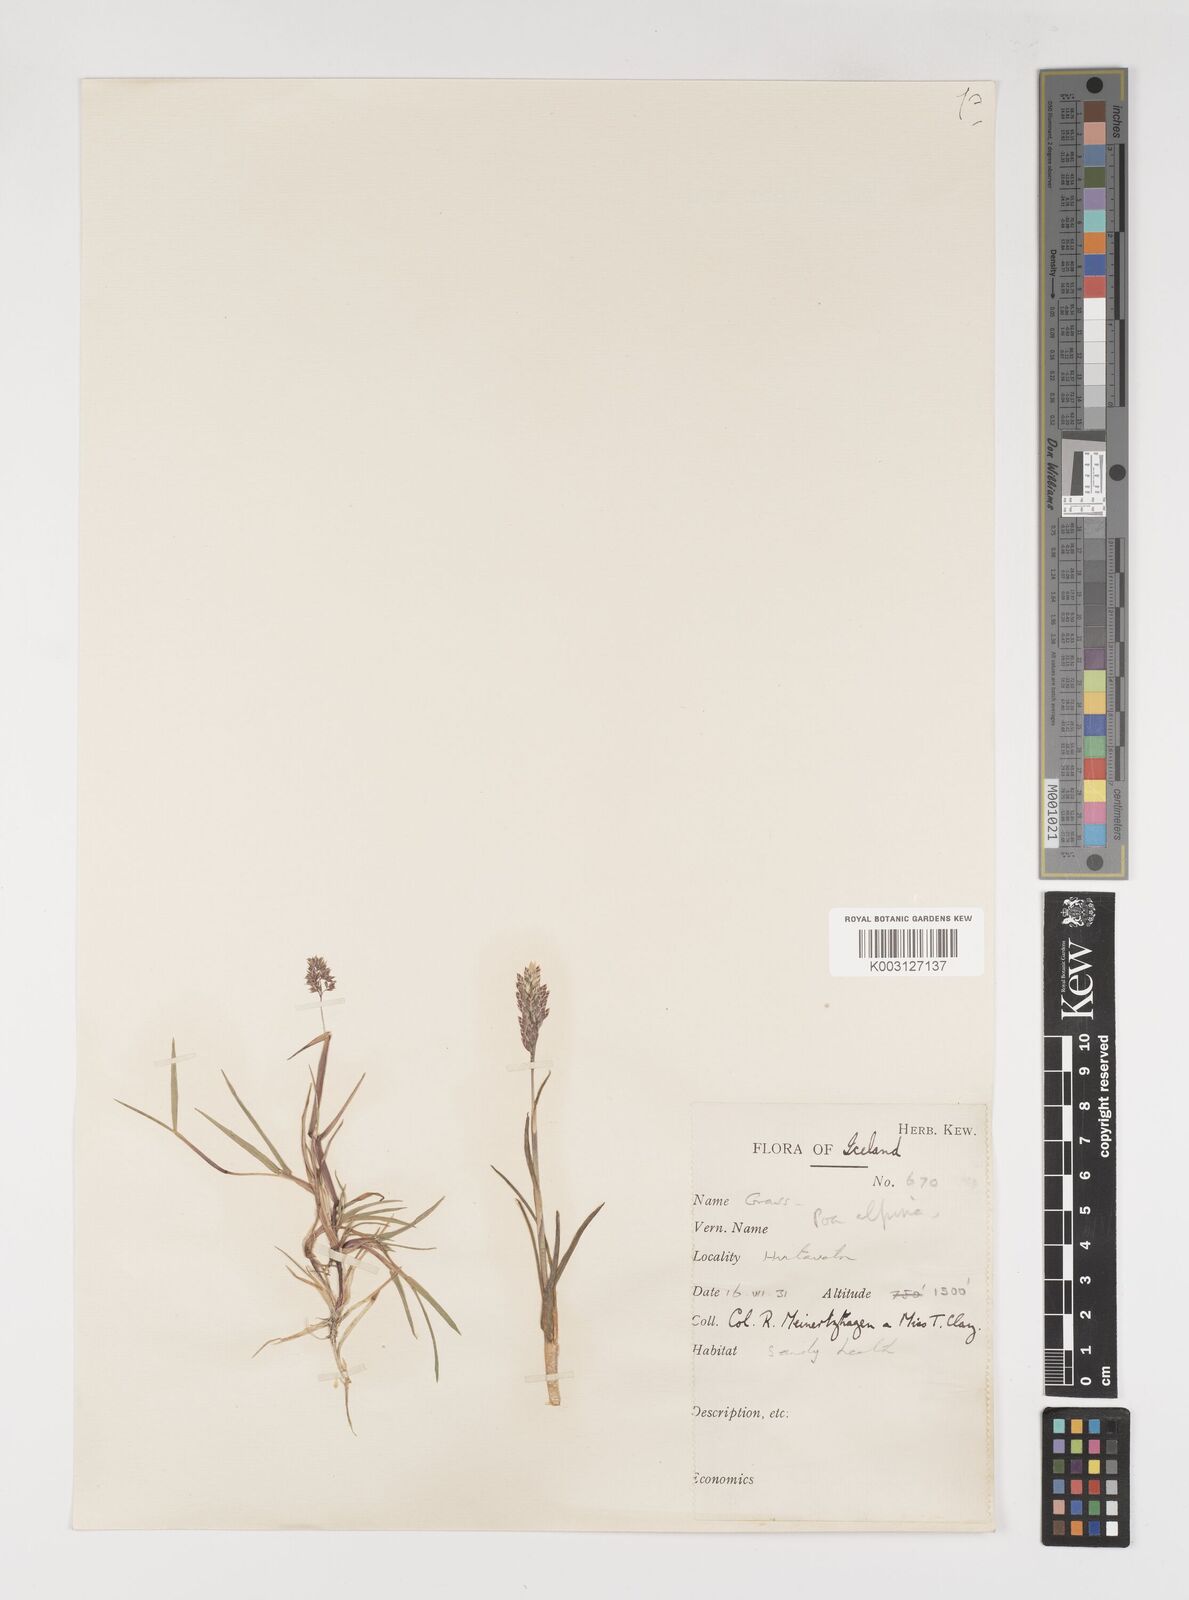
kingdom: Plantae
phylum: Tracheophyta
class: Liliopsida
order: Poales
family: Poaceae
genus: Poa
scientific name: Poa alpina
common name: Alpine bluegrass
